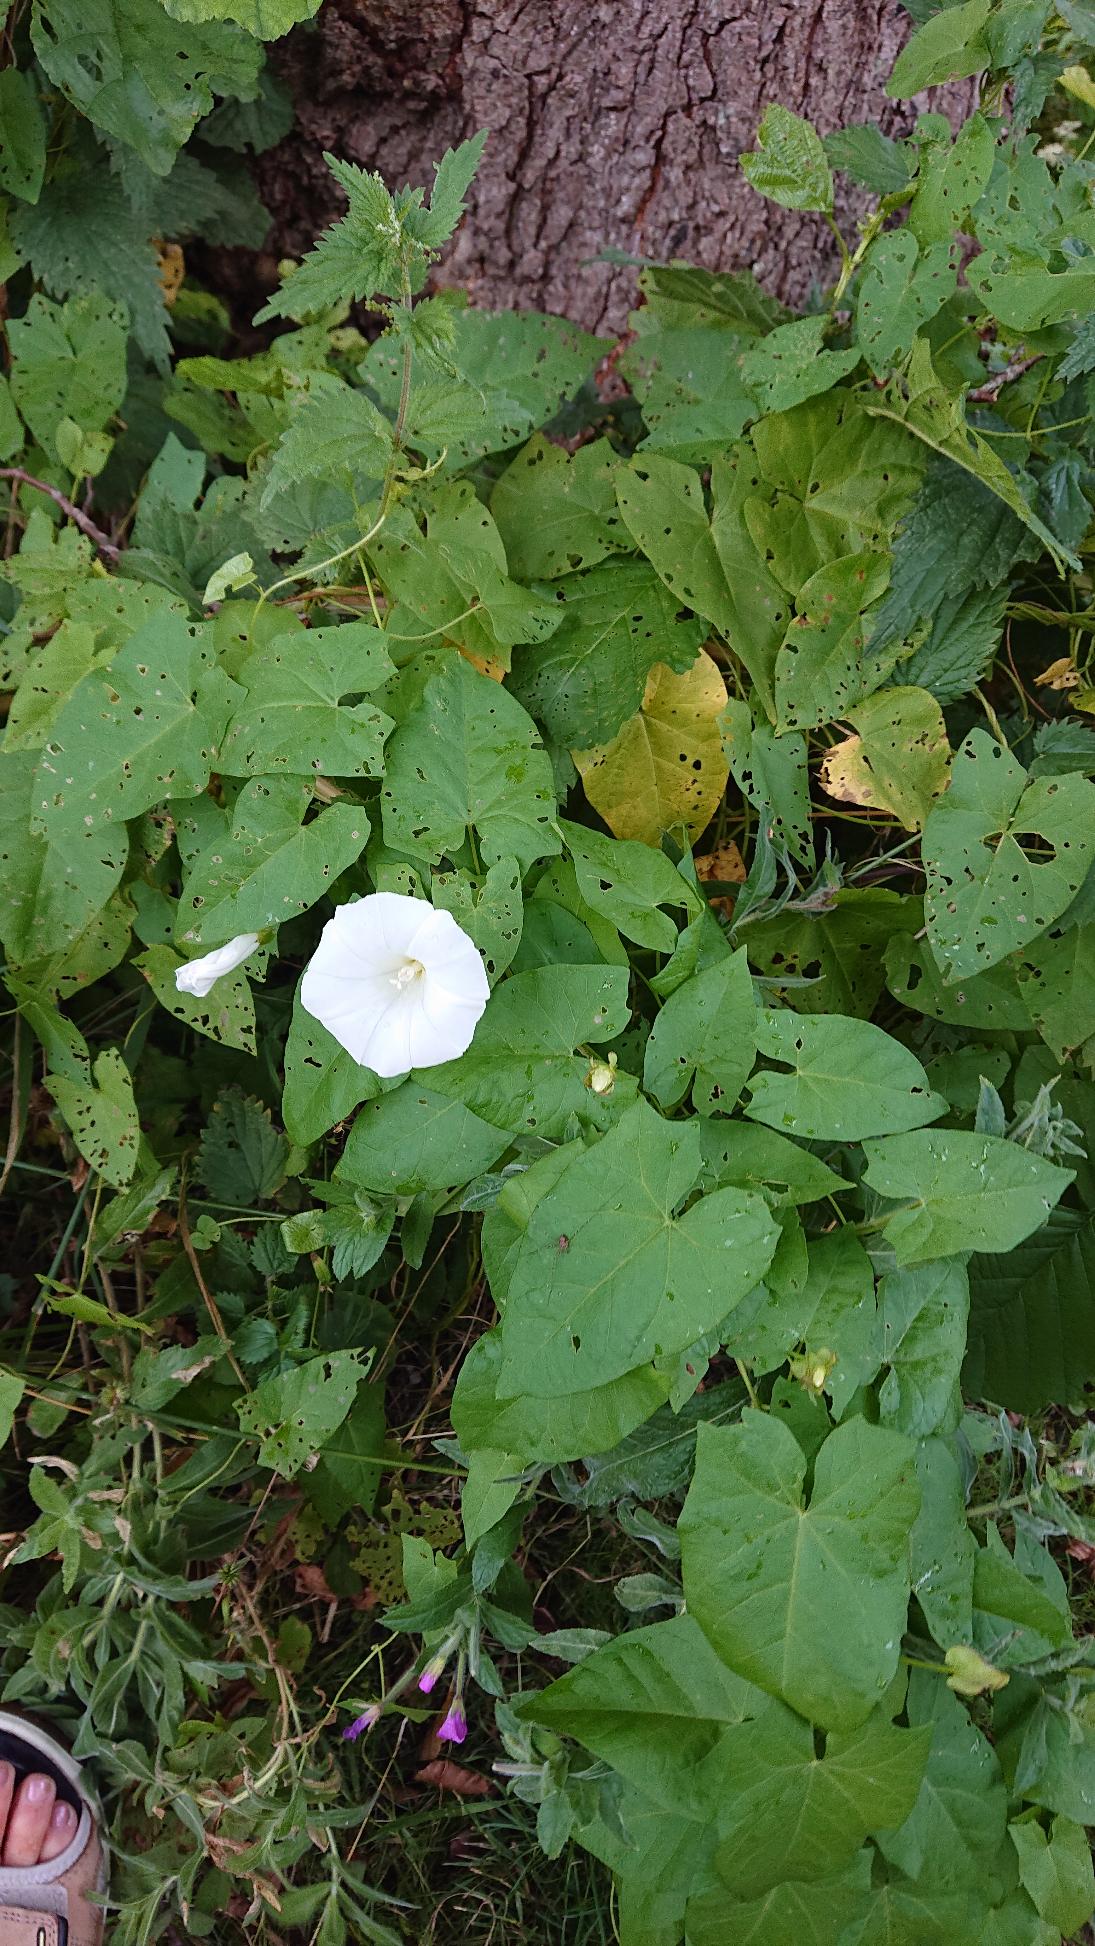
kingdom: Plantae
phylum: Tracheophyta
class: Magnoliopsida
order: Solanales
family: Convolvulaceae
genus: Calystegia
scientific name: Calystegia sepium
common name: Gærde-snerle
